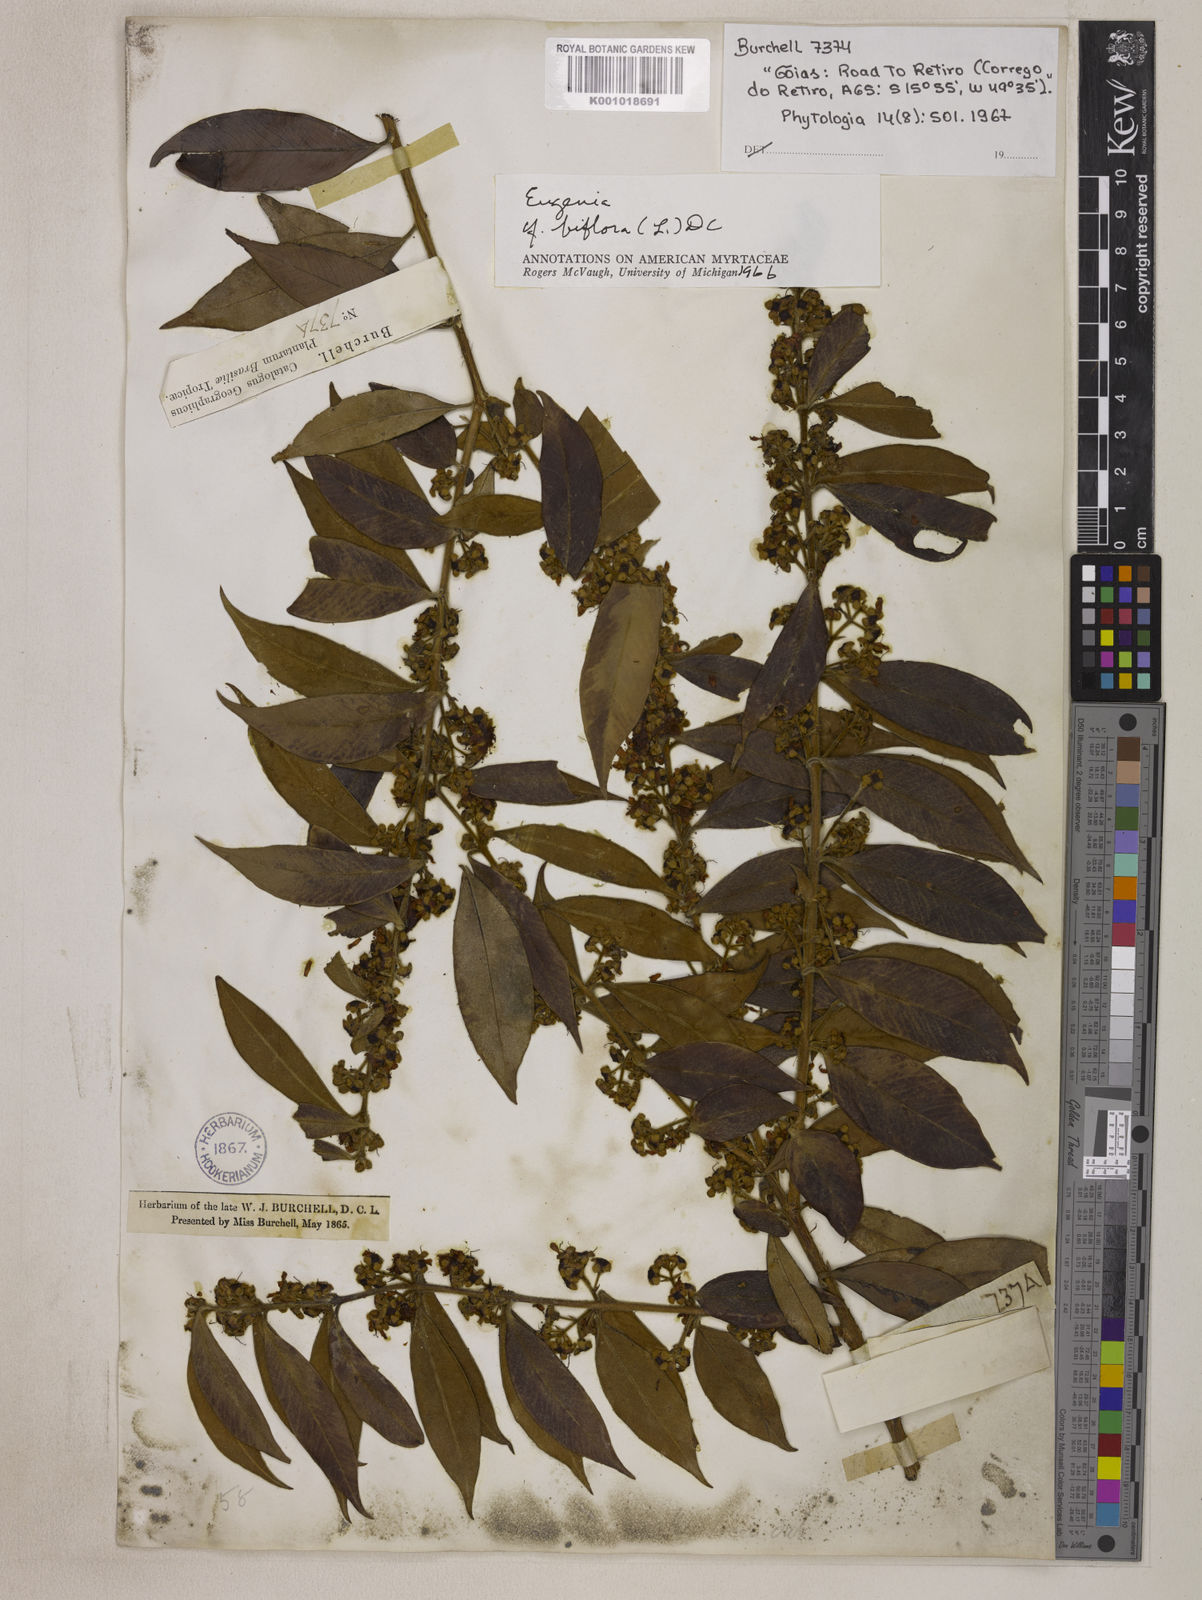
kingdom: Plantae
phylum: Tracheophyta
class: Magnoliopsida
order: Myrtales
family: Myrtaceae
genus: Eugenia
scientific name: Eugenia biflora
